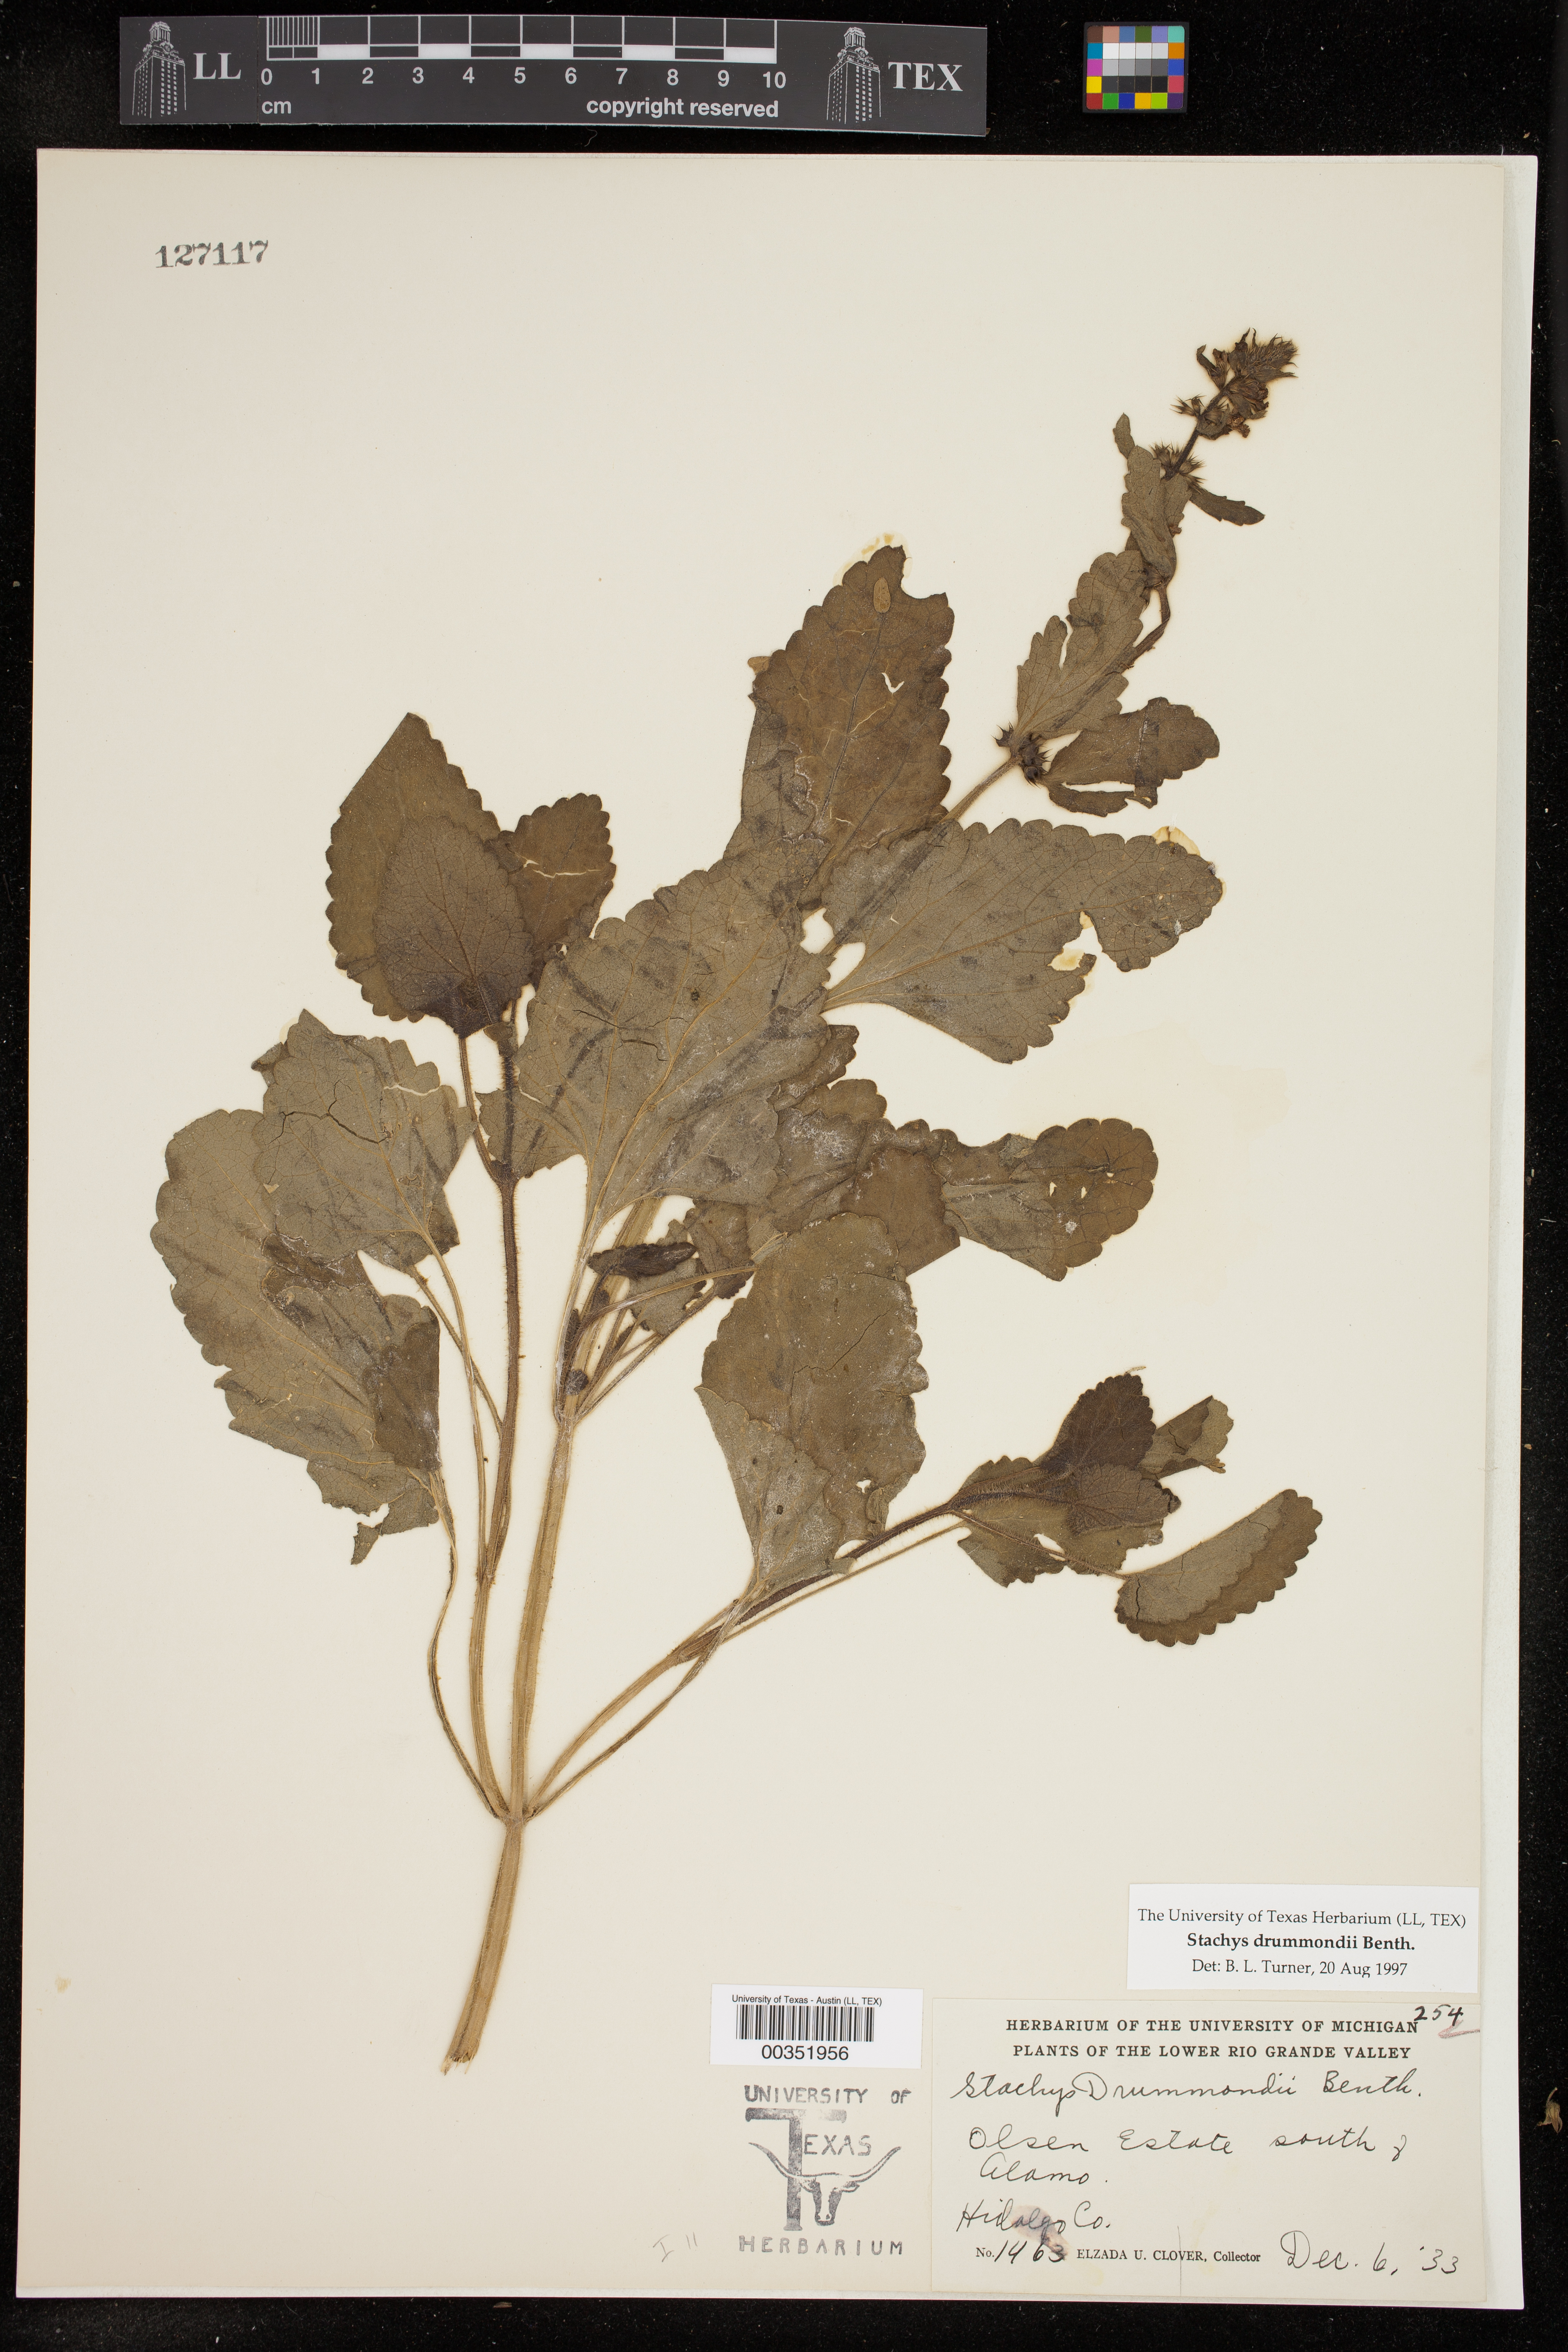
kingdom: Plantae
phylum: Tracheophyta
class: Magnoliopsida
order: Lamiales
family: Lamiaceae
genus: Stachys
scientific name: Stachys drummondii
